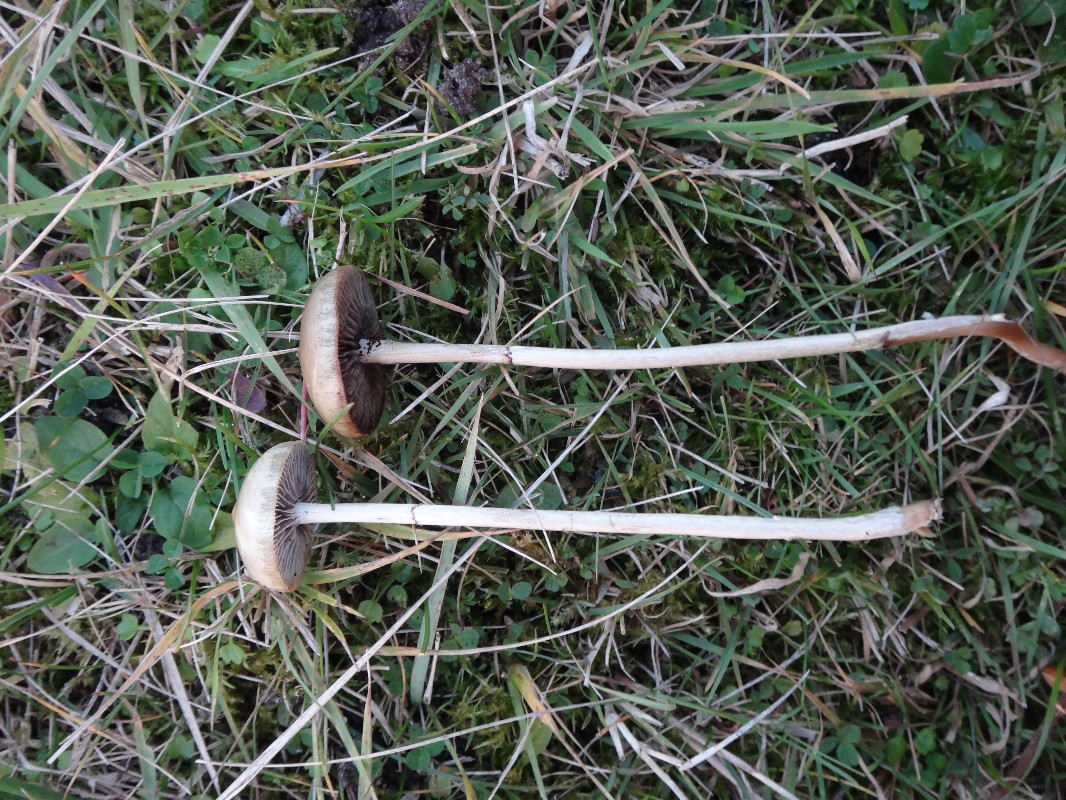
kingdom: Fungi
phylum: Basidiomycota
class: Agaricomycetes
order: Agaricales
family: Strophariaceae
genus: Protostropharia
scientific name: Protostropharia semiglobata
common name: halvkugleformet bredblad
